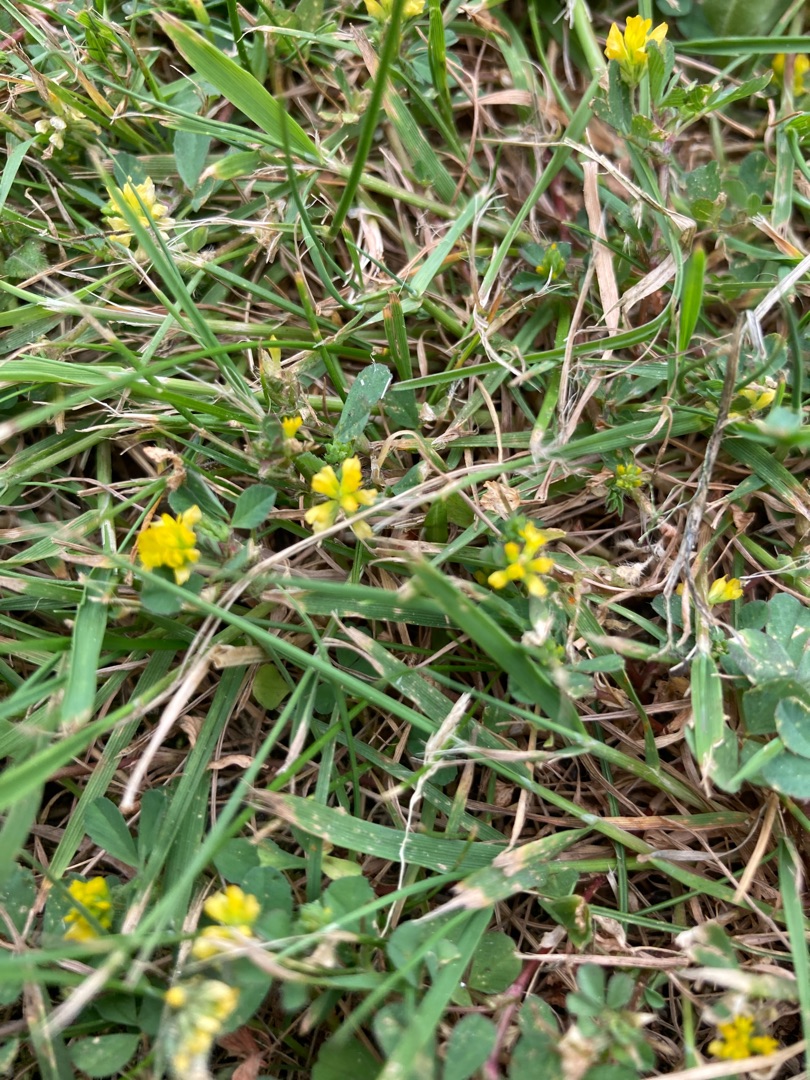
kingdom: Plantae
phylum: Tracheophyta
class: Magnoliopsida
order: Fabales
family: Fabaceae
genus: Trifolium
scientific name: Trifolium dubium
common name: Fin kløver
